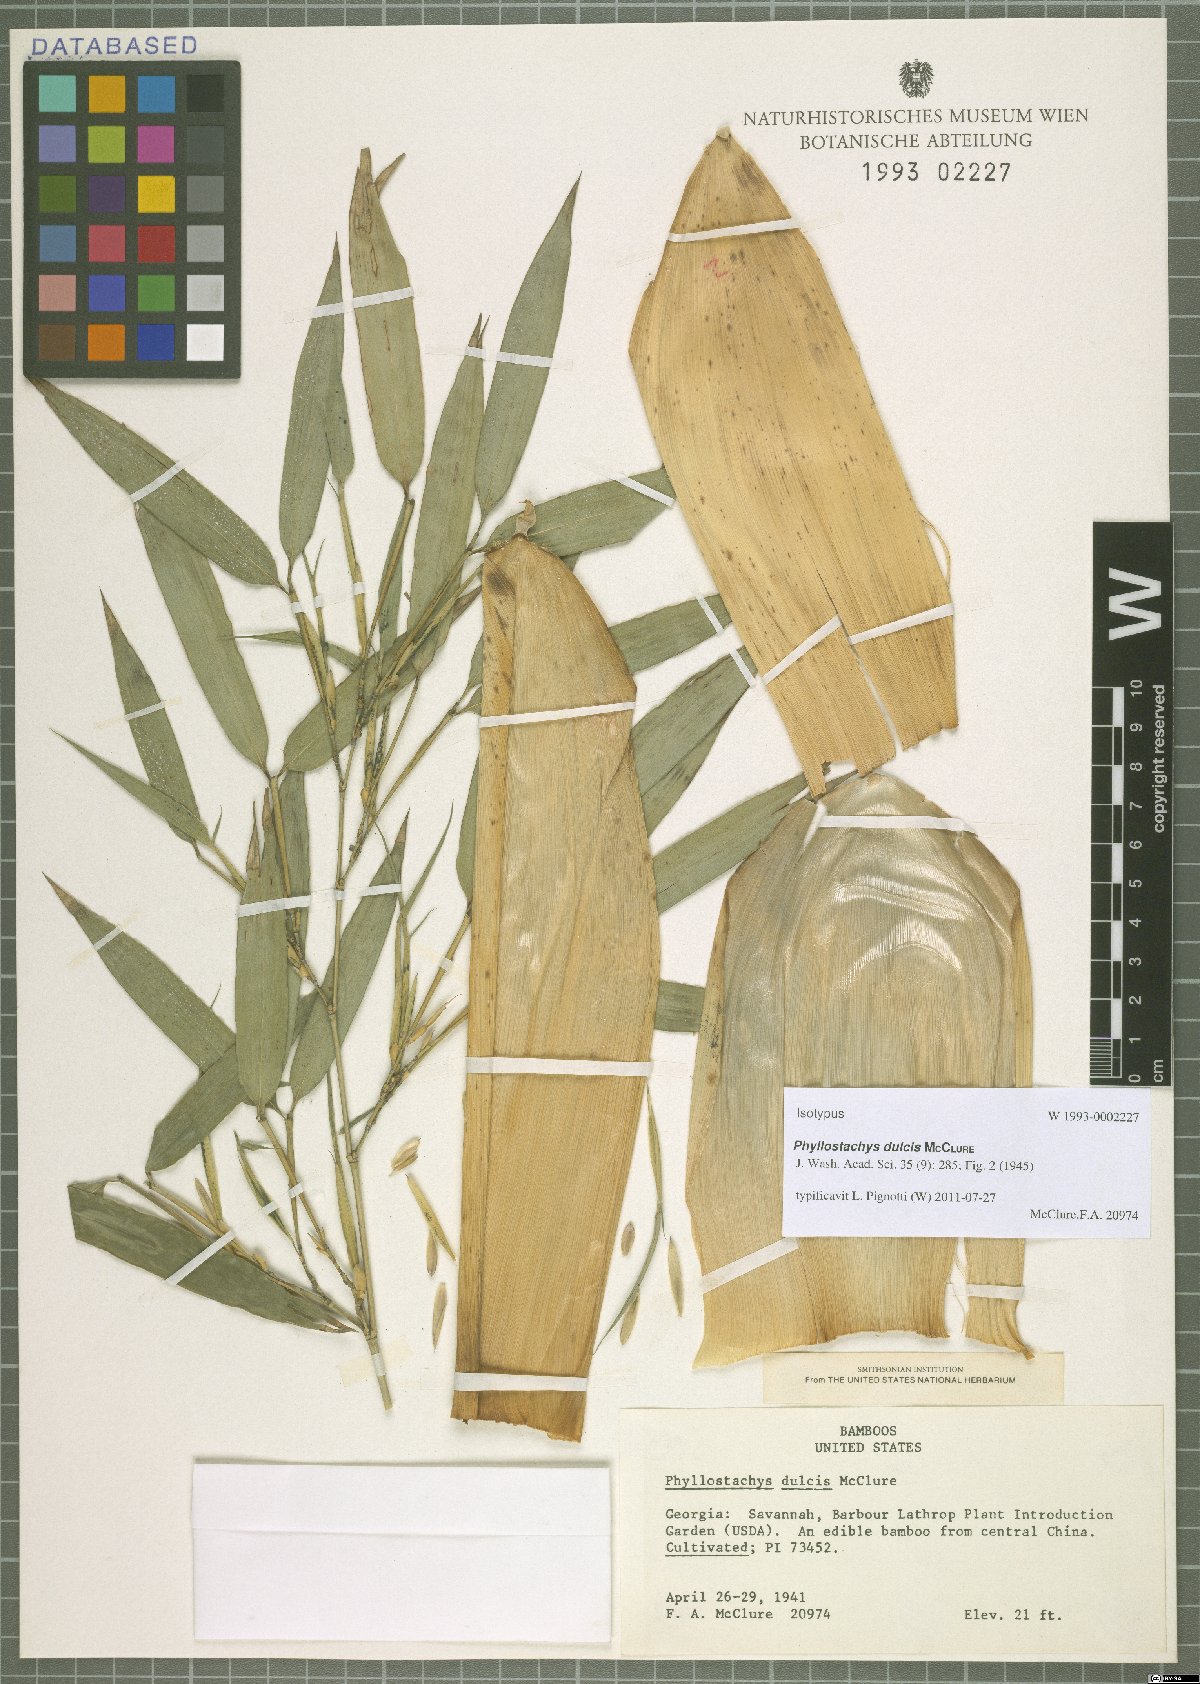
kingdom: Plantae
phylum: Tracheophyta
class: Liliopsida
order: Poales
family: Poaceae
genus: Phyllostachys
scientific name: Phyllostachys dulcis
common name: Sweetshoot bamboo
